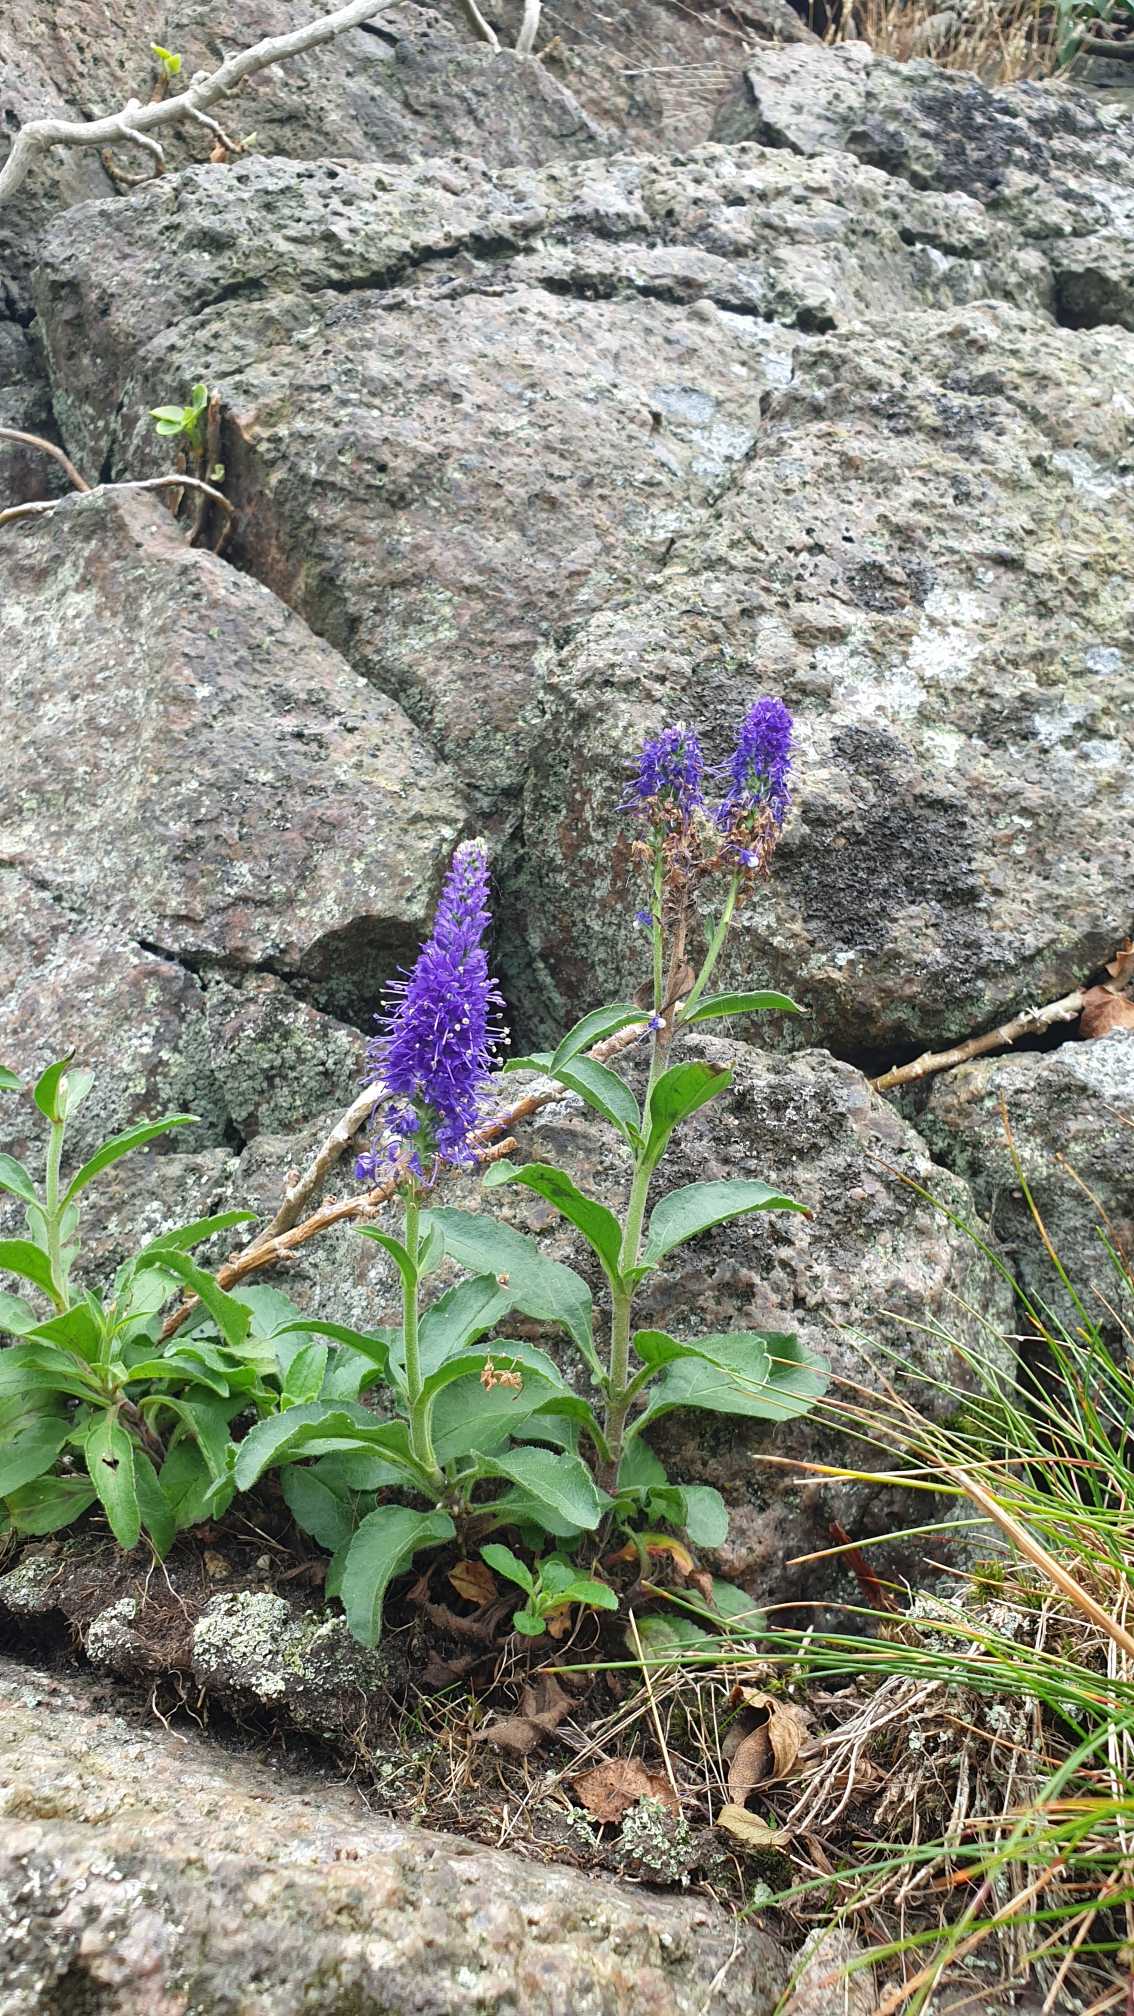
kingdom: Plantae
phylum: Tracheophyta
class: Magnoliopsida
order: Lamiales
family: Plantaginaceae
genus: Veronica
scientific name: Veronica spicata
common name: Aks-ærenpris
